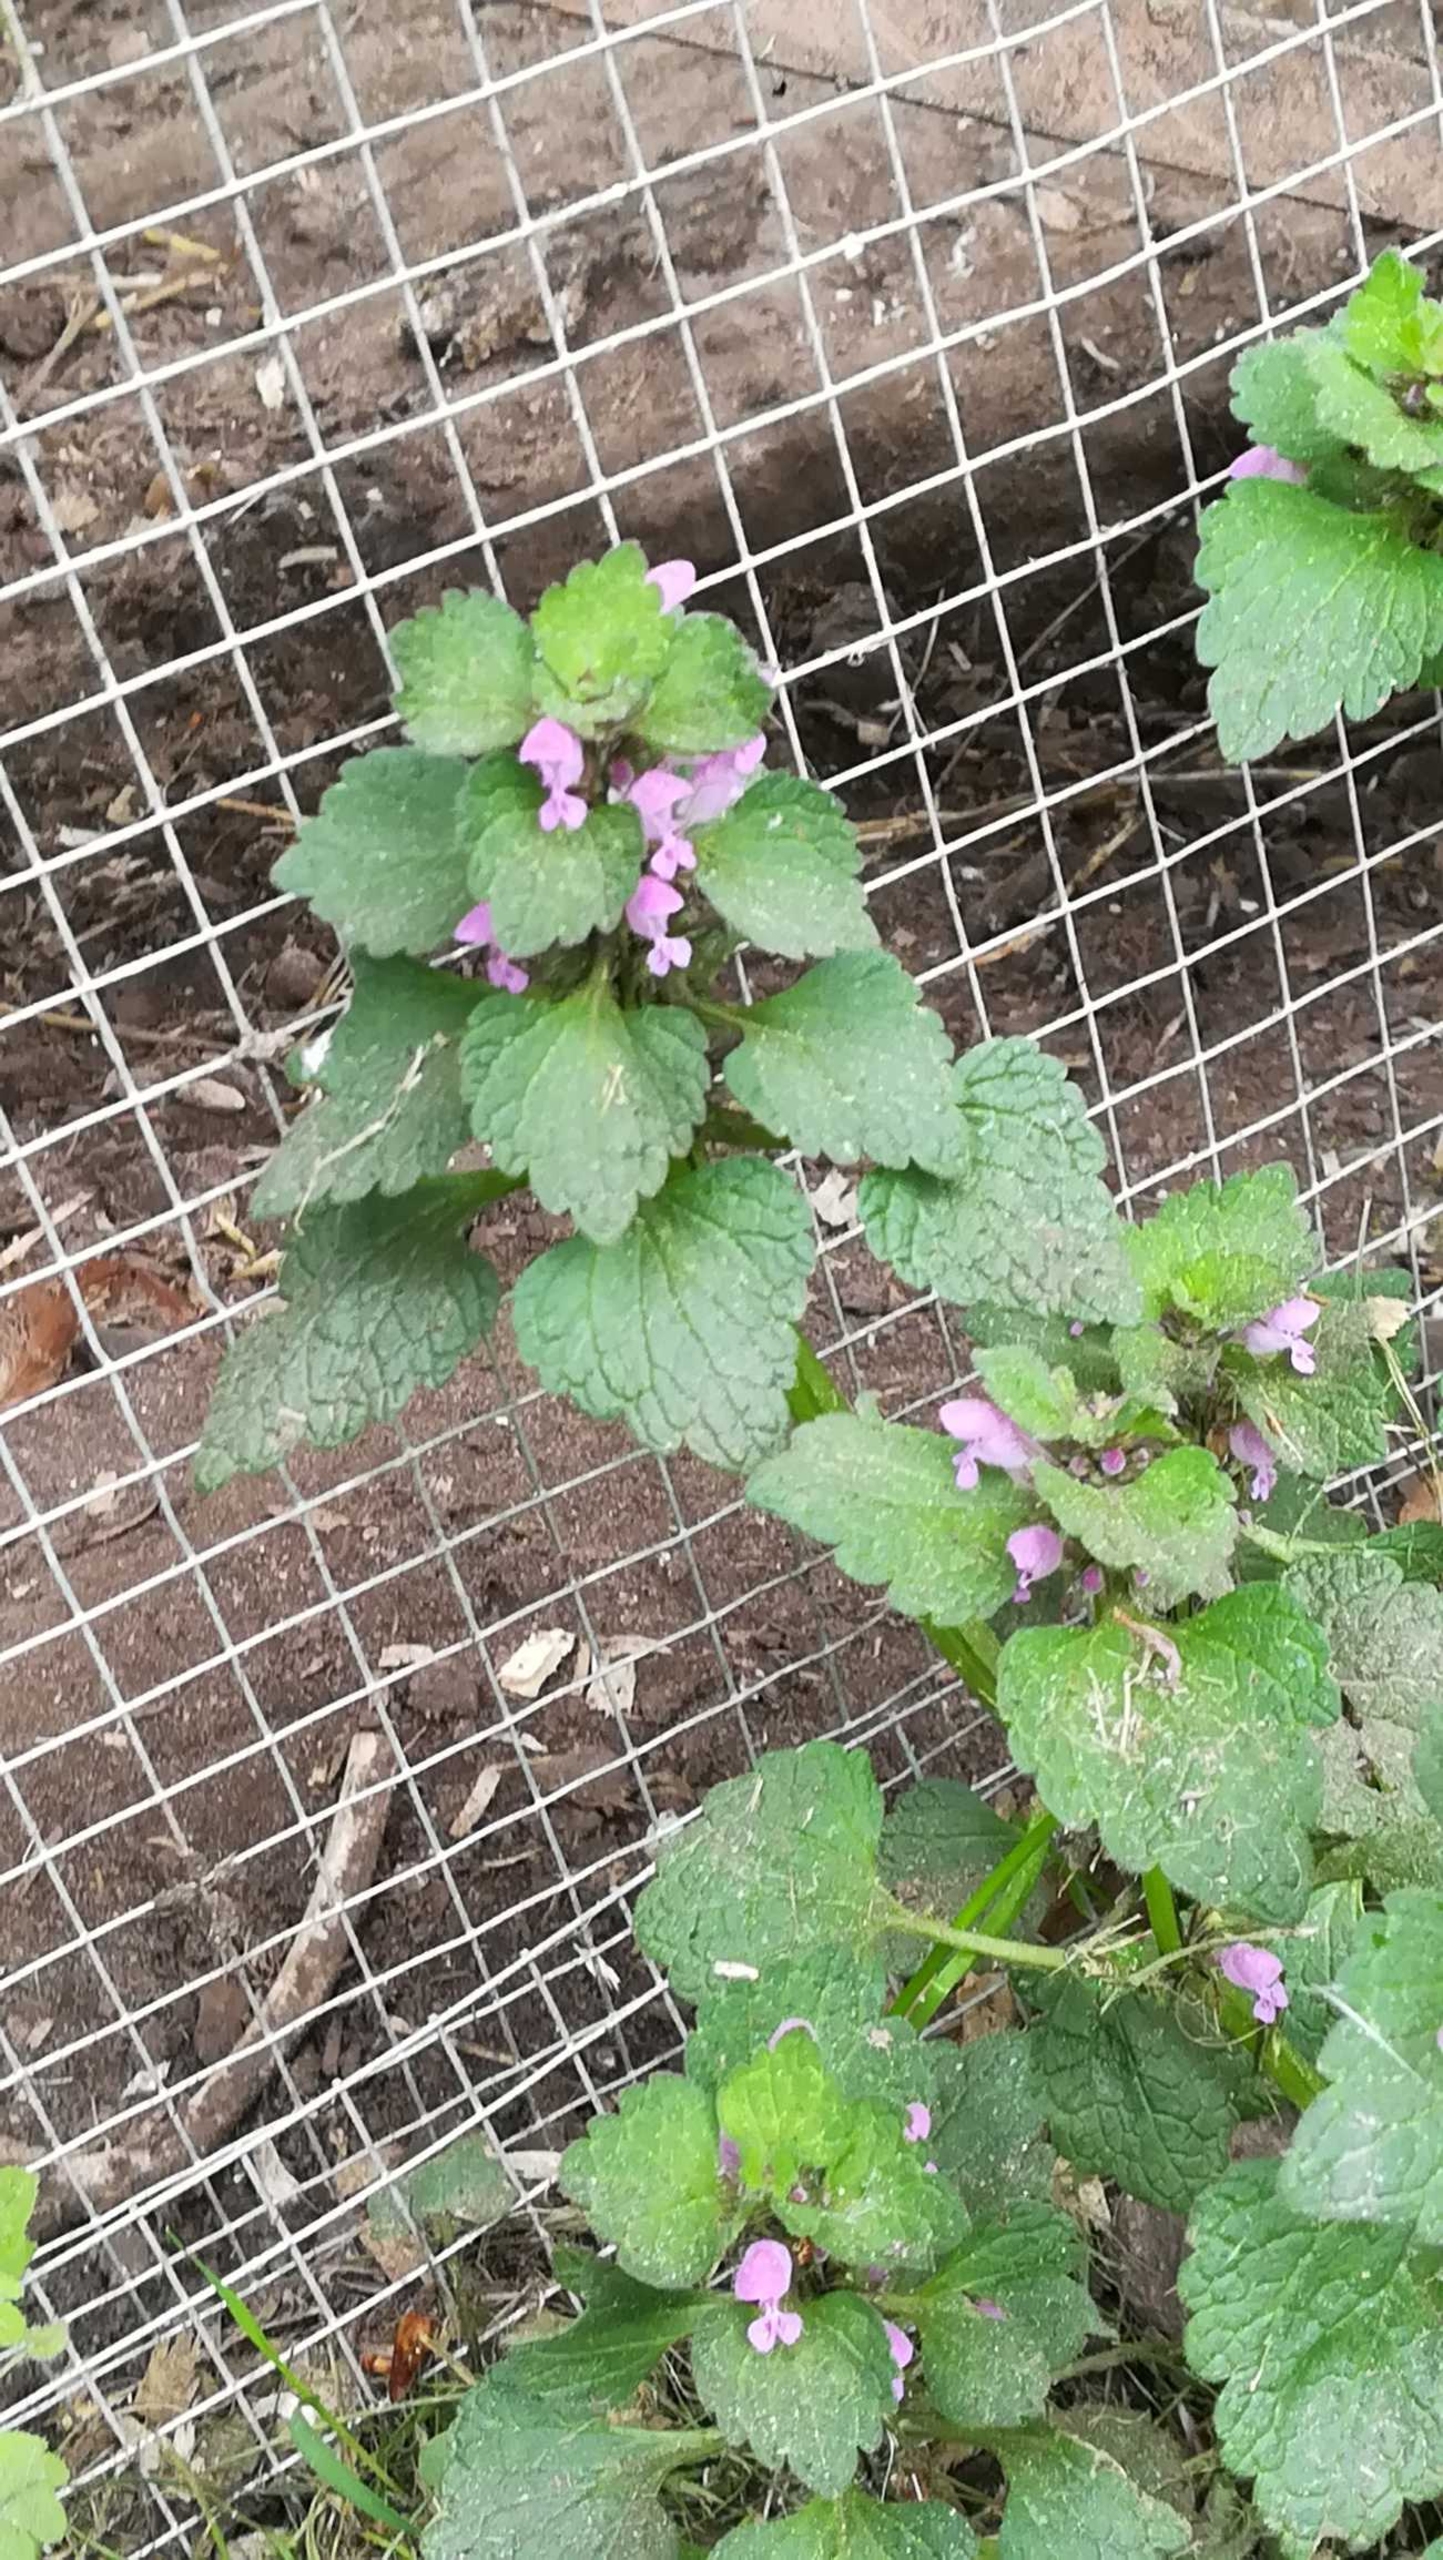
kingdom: Plantae
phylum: Tracheophyta
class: Magnoliopsida
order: Lamiales
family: Lamiaceae
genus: Lamium
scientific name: Lamium purpureum
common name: Rød tvetand
